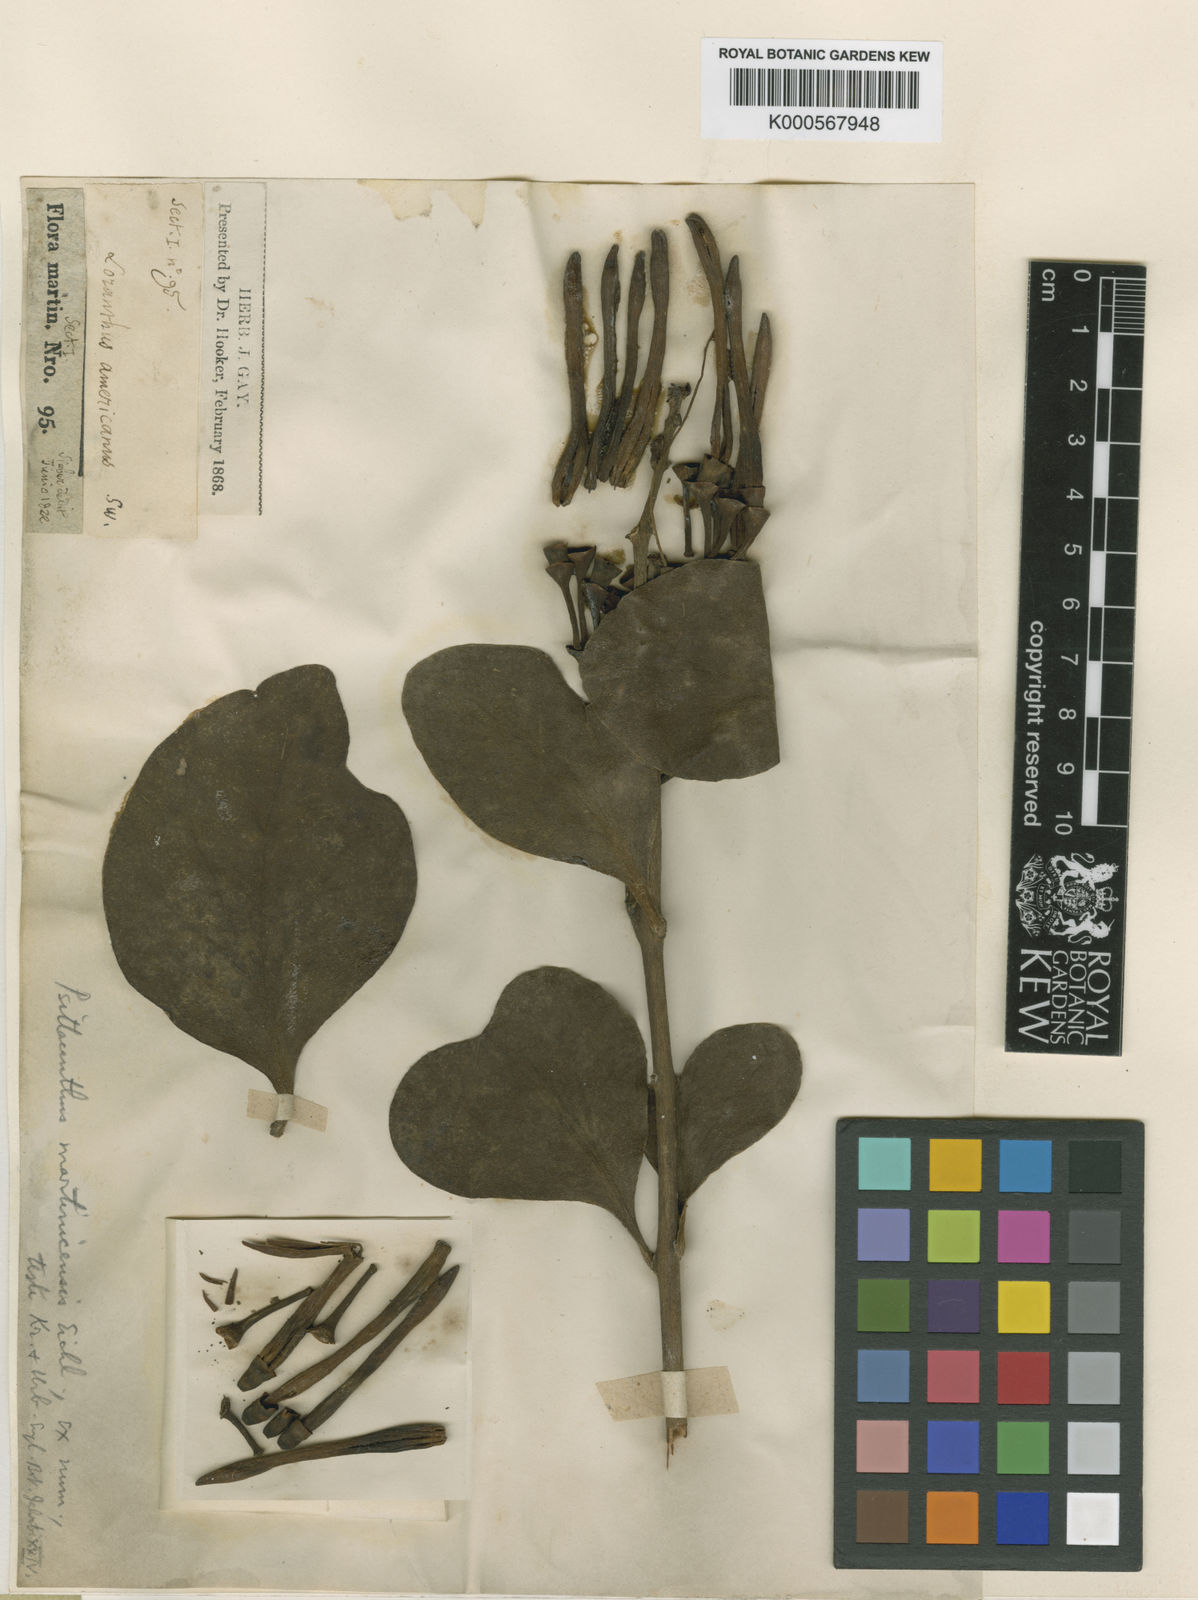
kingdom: Plantae
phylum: Tracheophyta
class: Magnoliopsida
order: Santalales
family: Loranthaceae
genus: Psittacanthus
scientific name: Psittacanthus martinicensis
